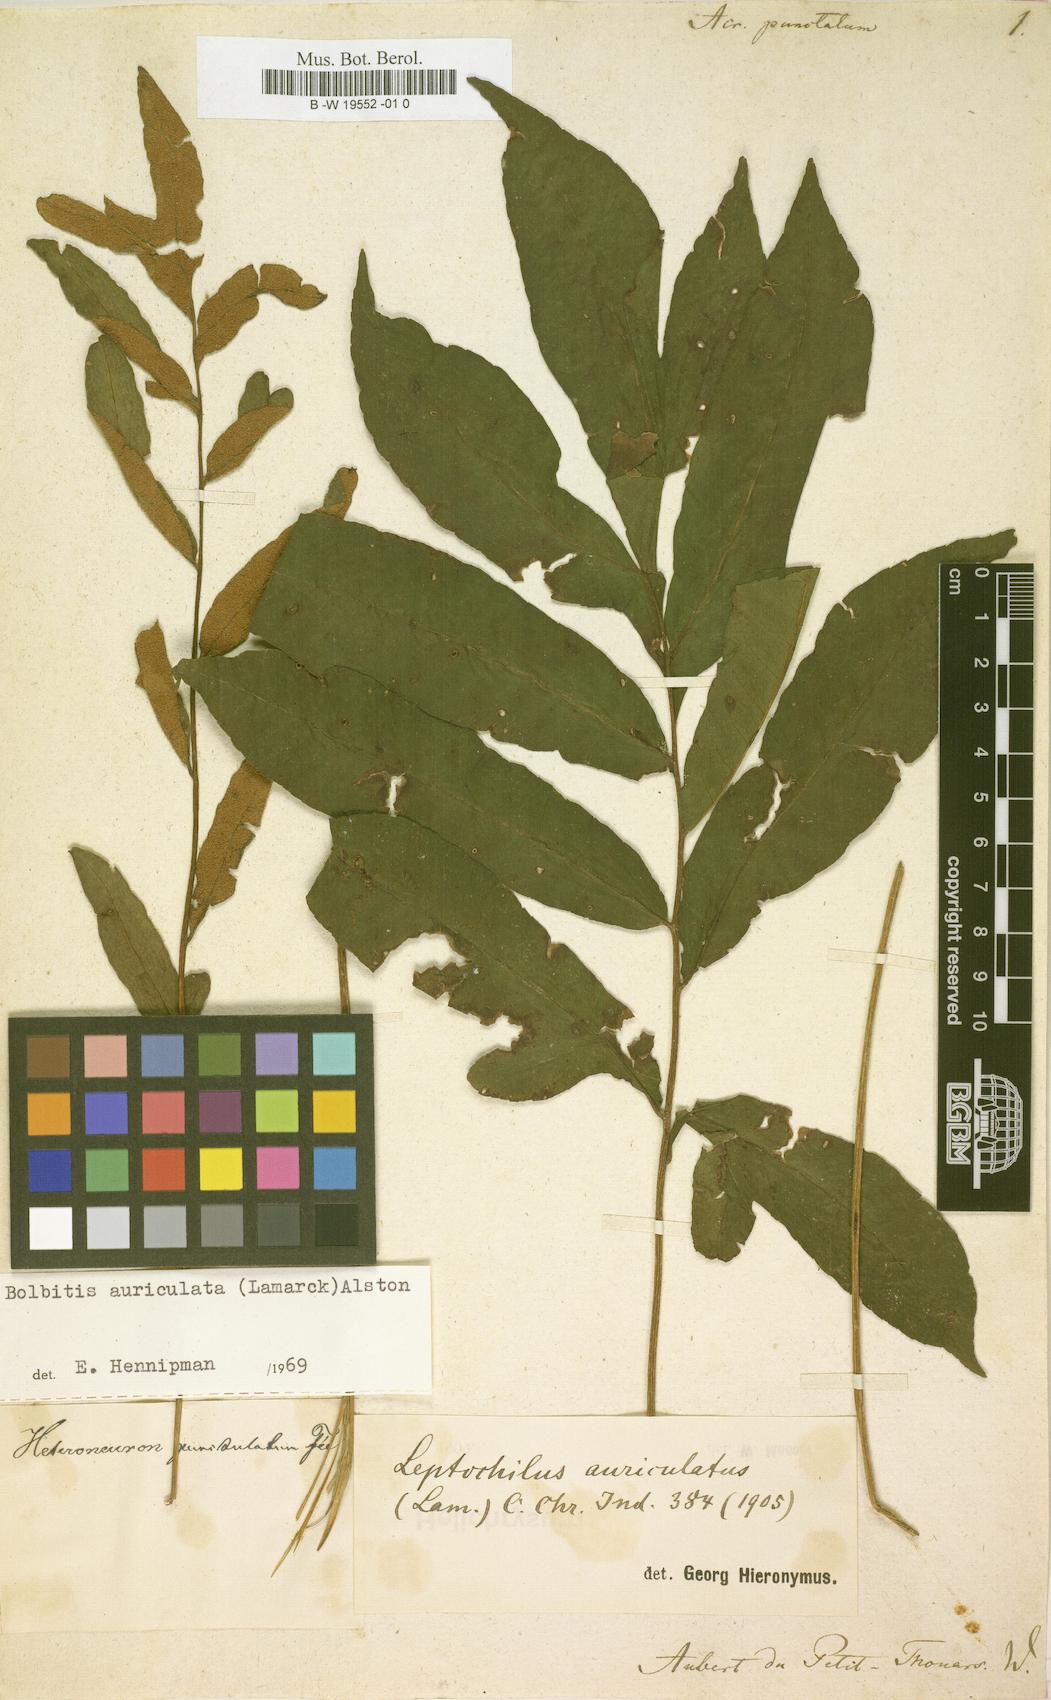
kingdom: Plantae
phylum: Tracheophyta
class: Polypodiopsida
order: Polypodiales
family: Polypodiaceae
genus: Microsorum
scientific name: Microsorum punctatum
